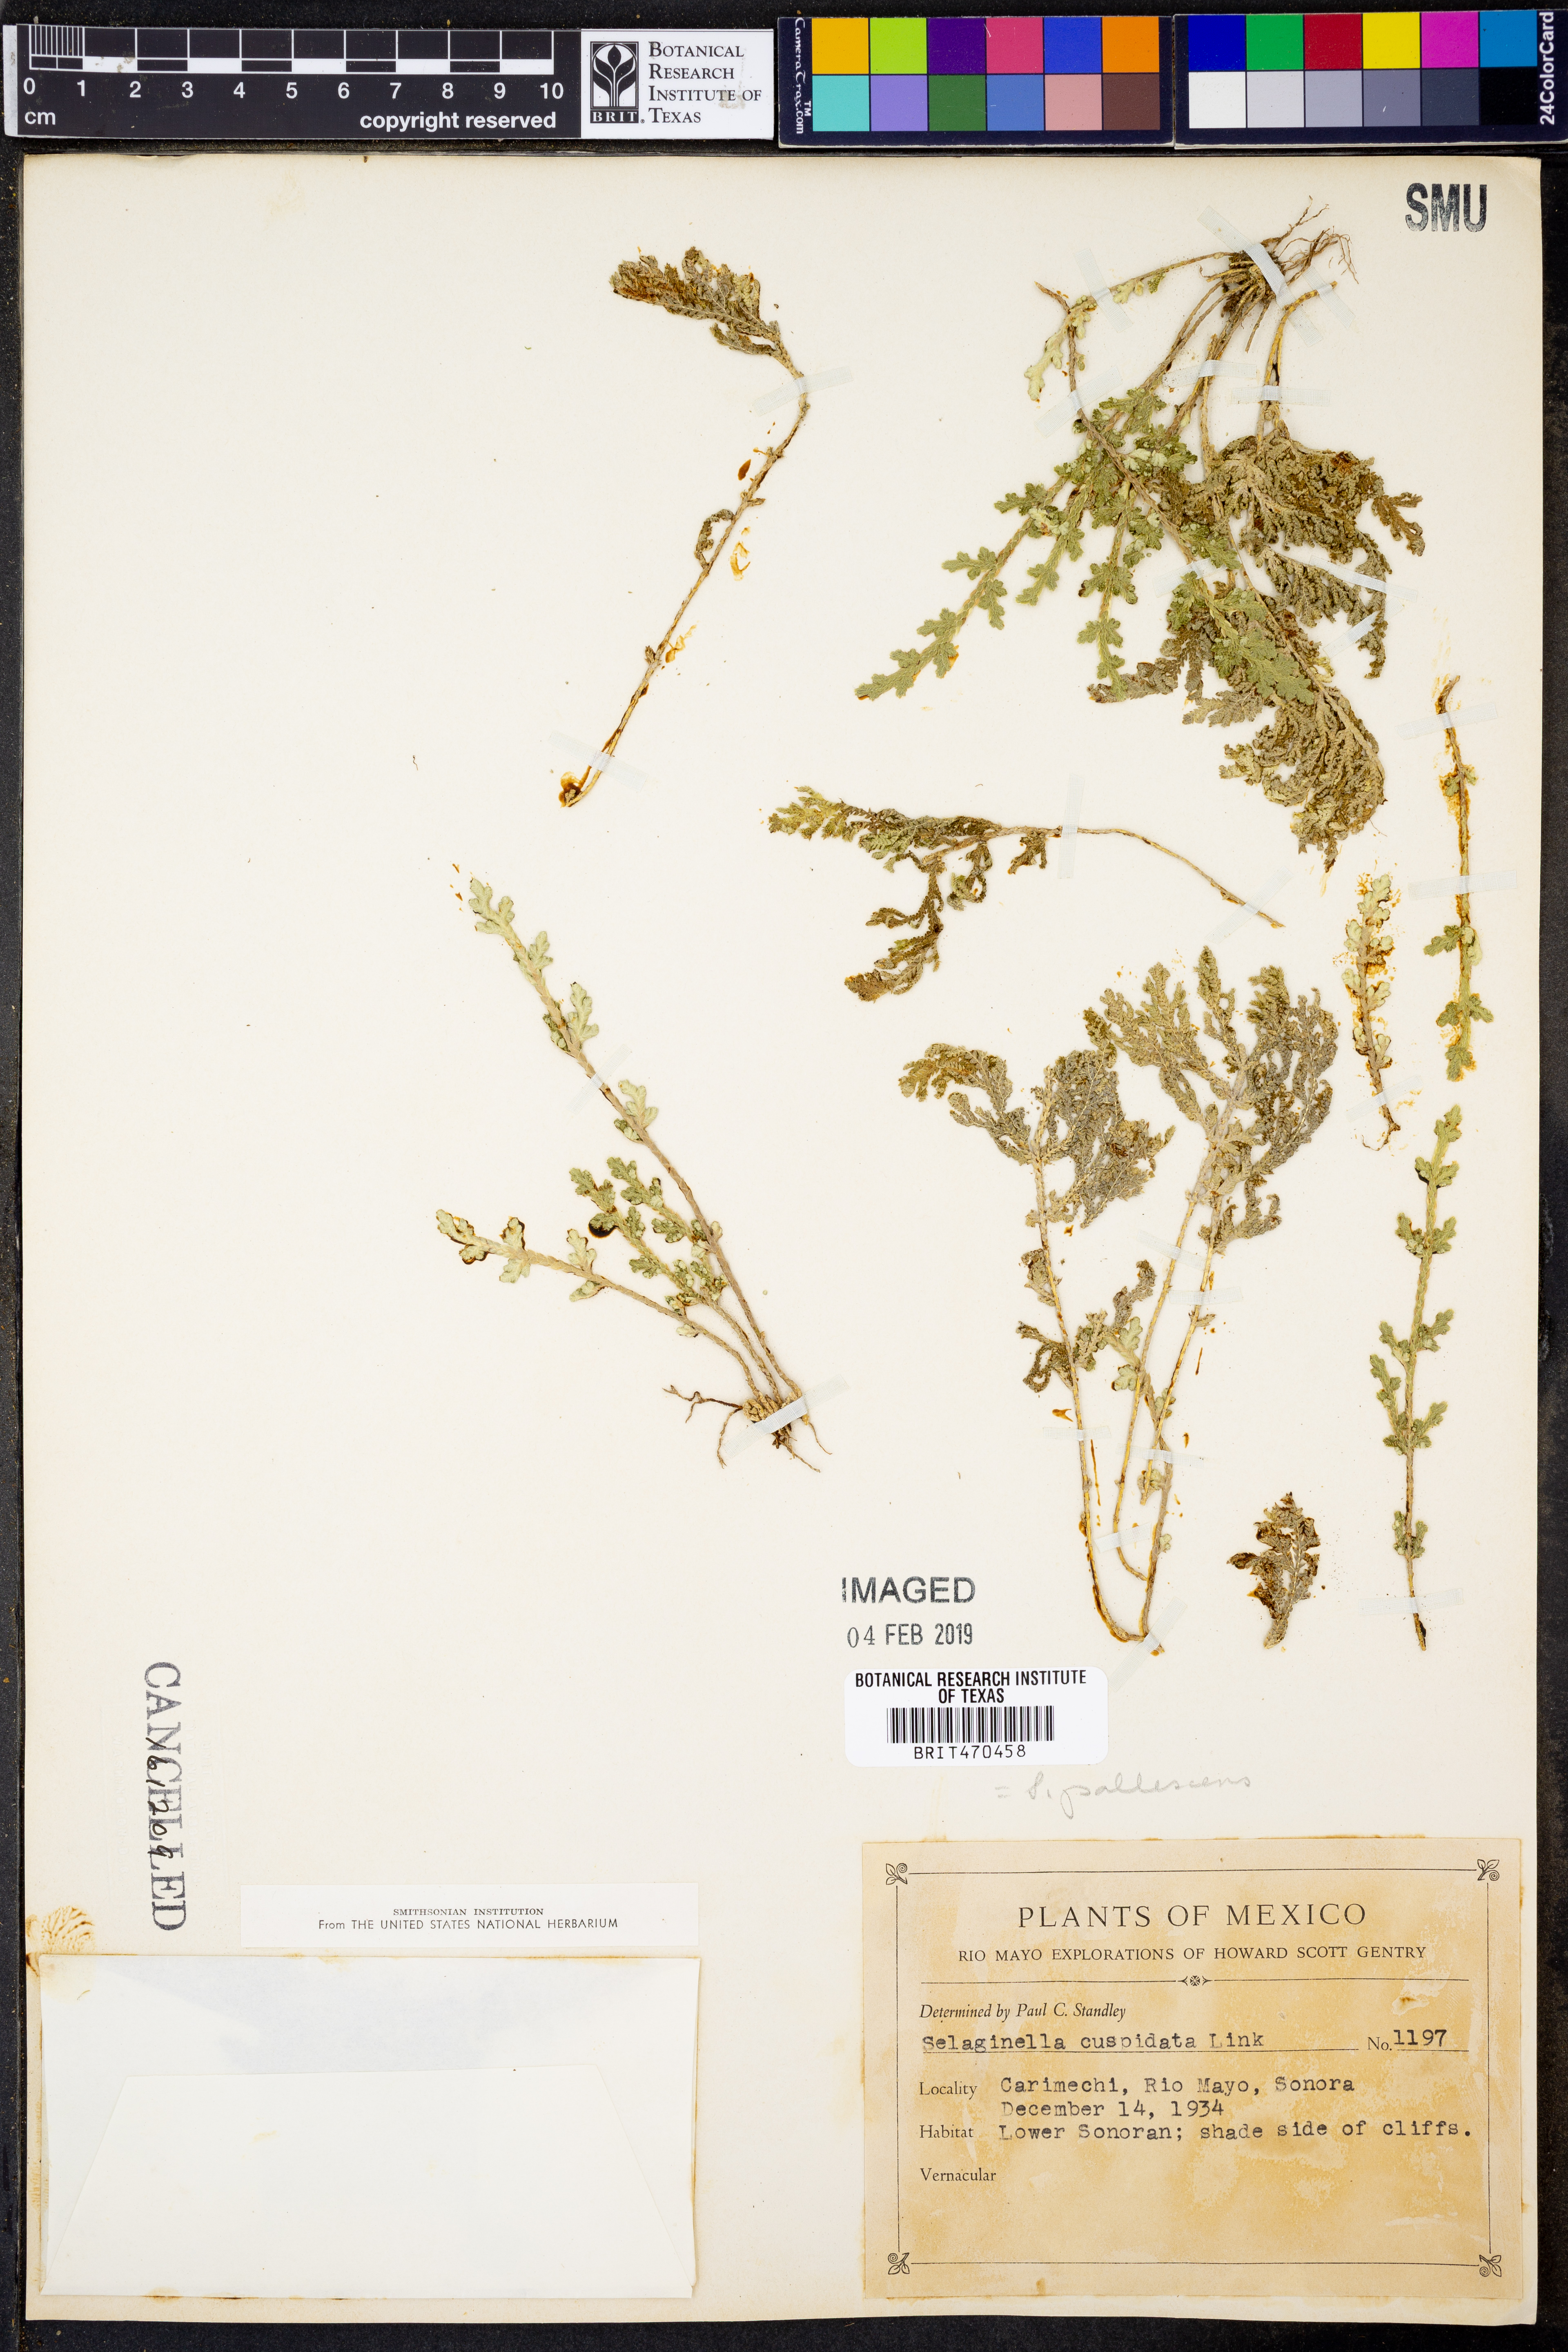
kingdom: Plantae
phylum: Tracheophyta
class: Lycopodiopsida
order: Selaginellales
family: Selaginellaceae
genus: Selaginella
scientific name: Selaginella pallescens
